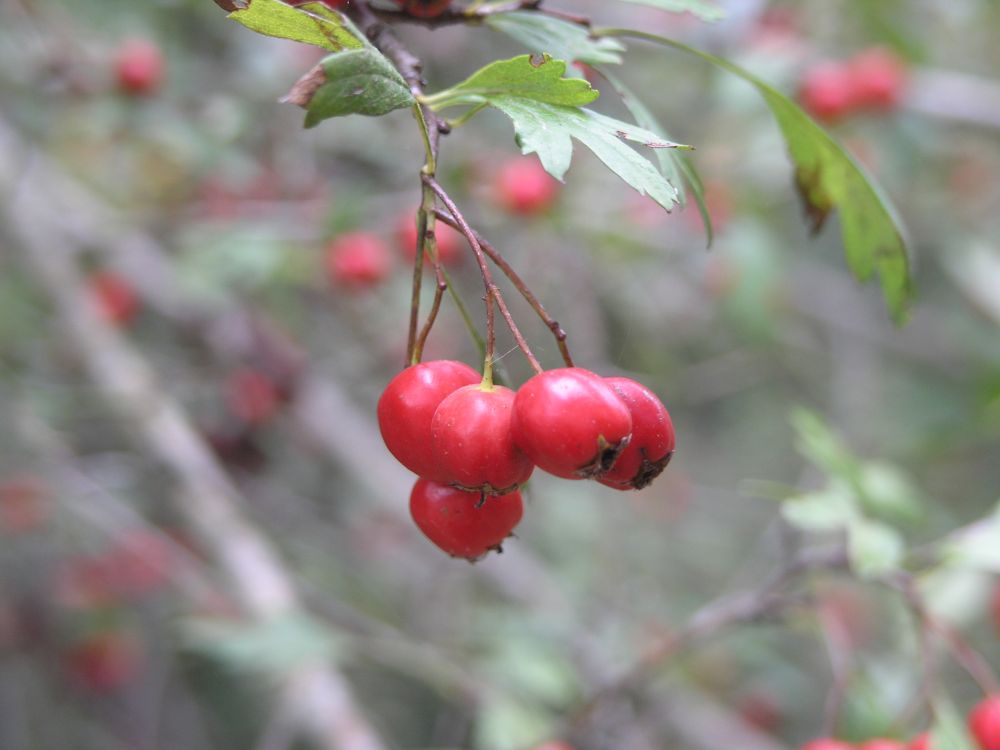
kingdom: Plantae
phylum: Tracheophyta
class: Magnoliopsida
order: Rosales
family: Rosaceae
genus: Crataegus
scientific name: Crataegus monogyna
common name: Hawthorn
